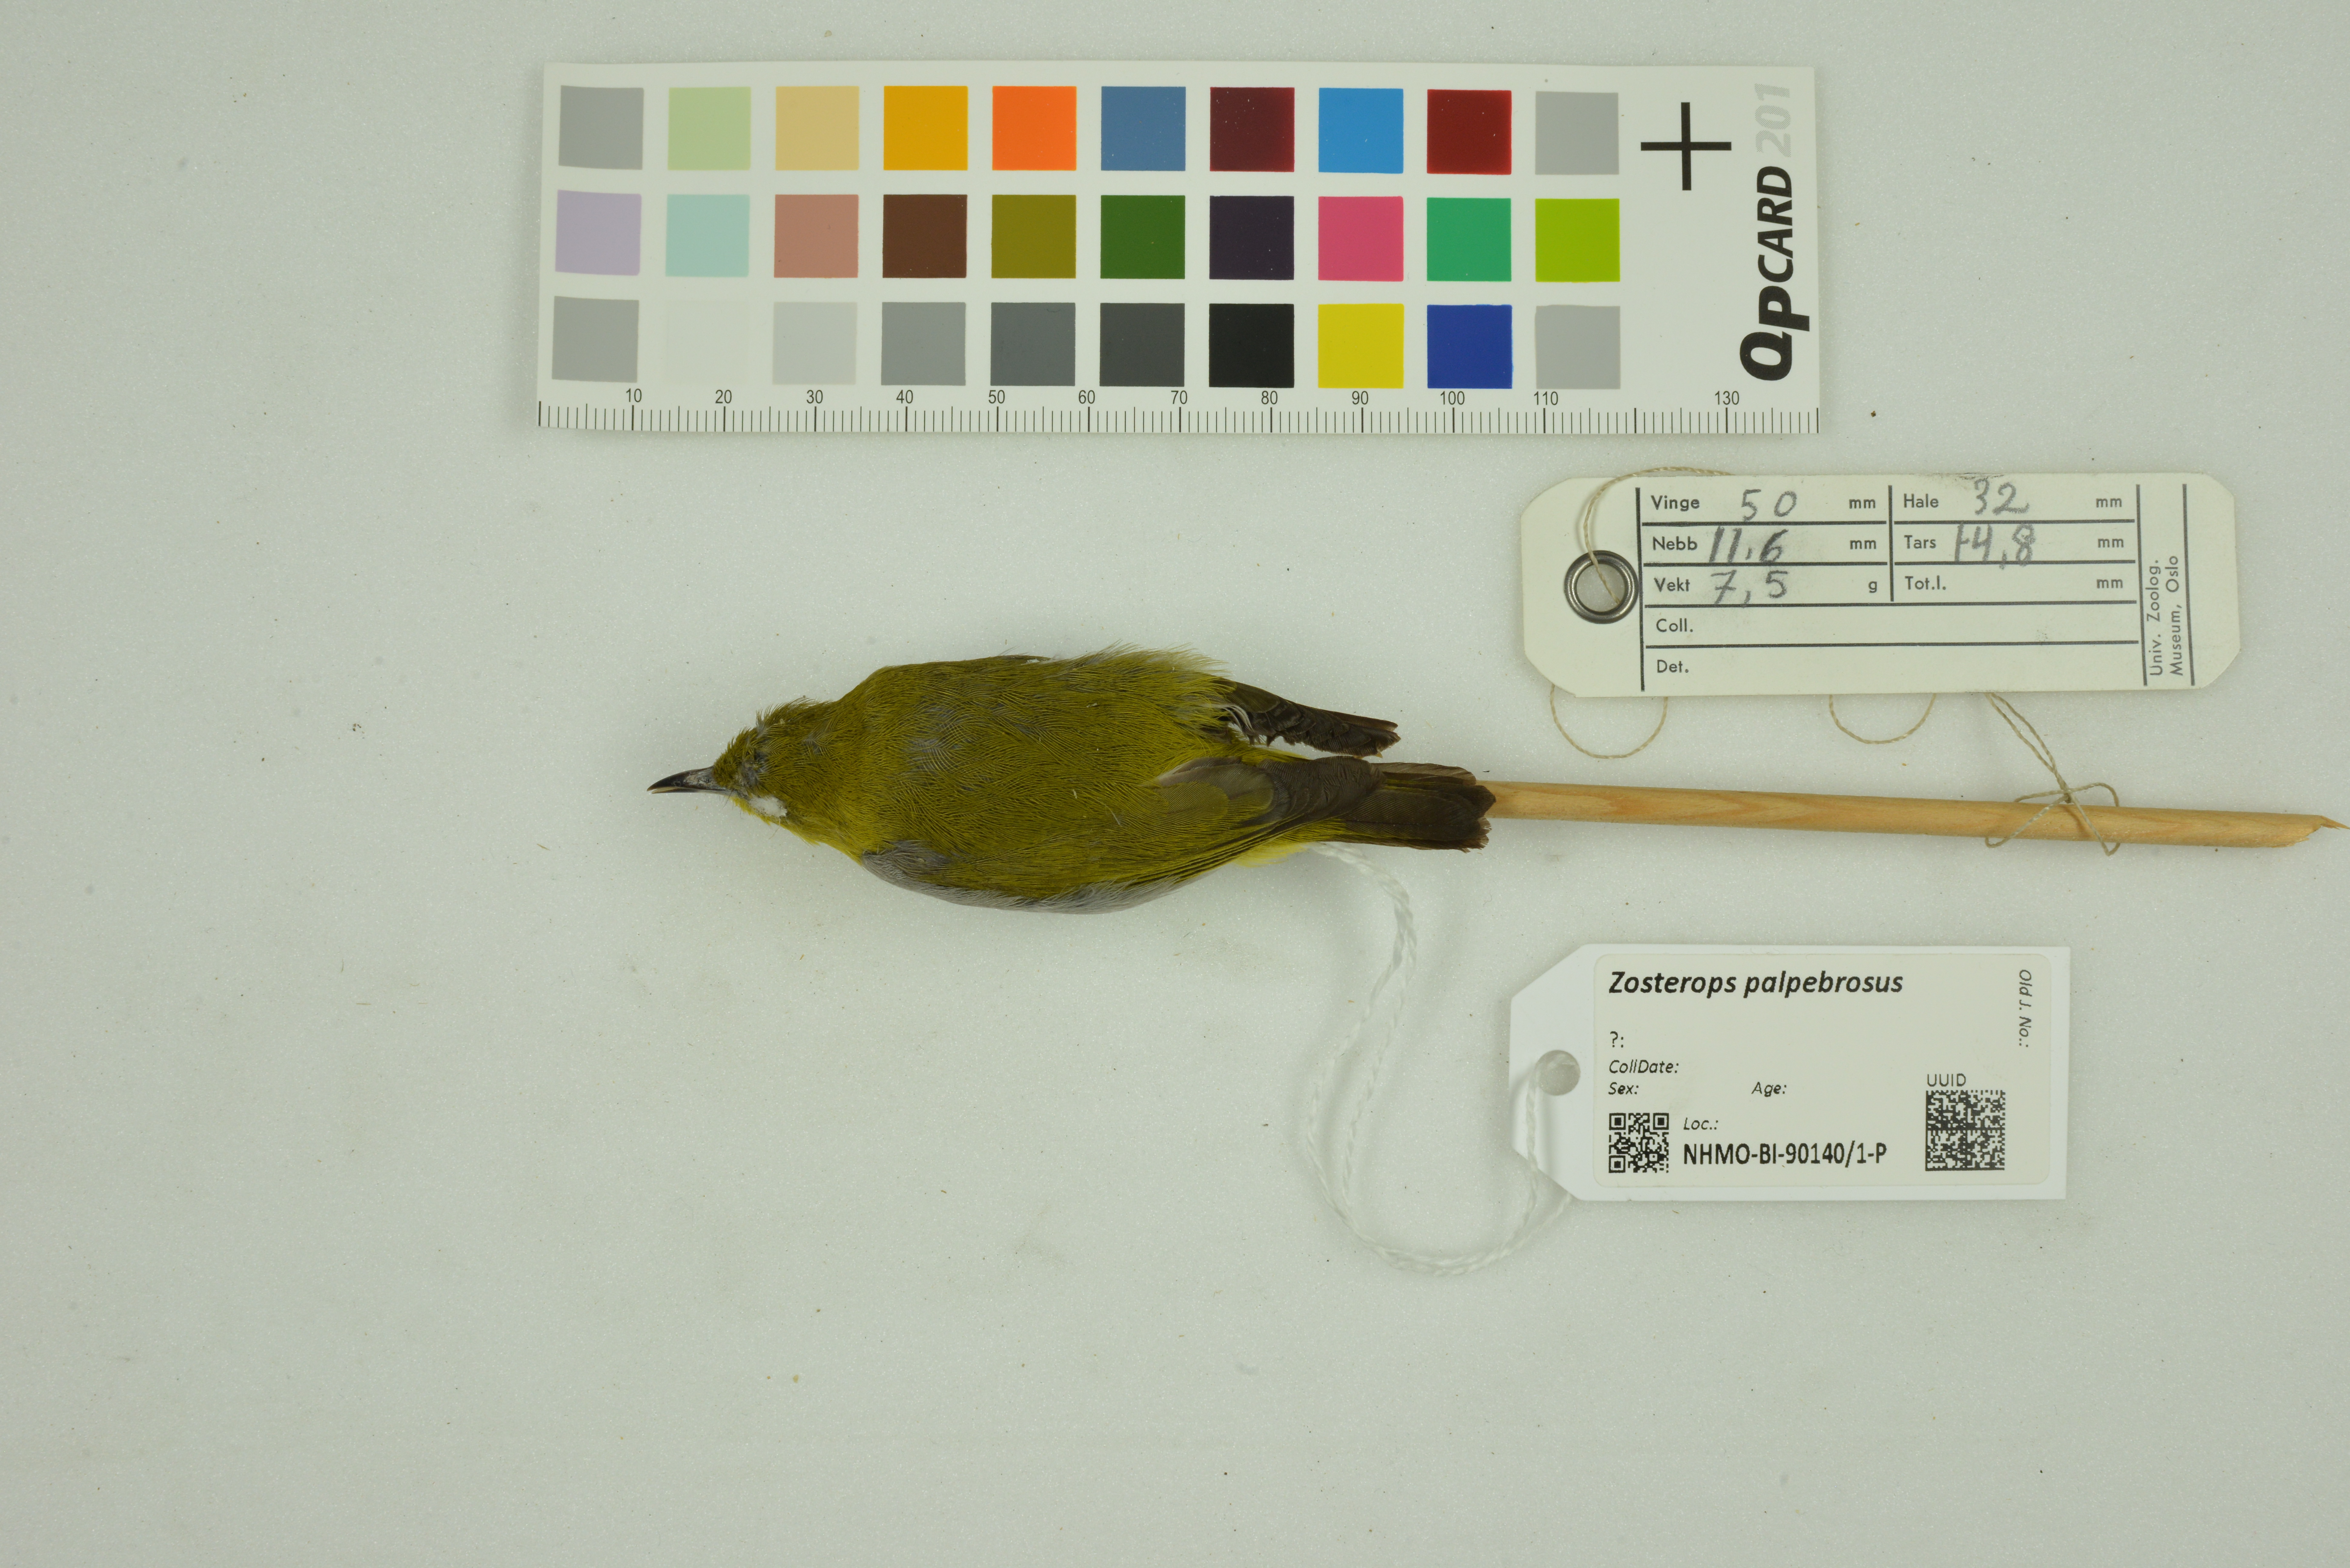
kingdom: Animalia
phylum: Chordata
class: Aves
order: Passeriformes
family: Zosteropidae
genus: Zosterops
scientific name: Zosterops palpebrosus
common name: Oriental white-eye
